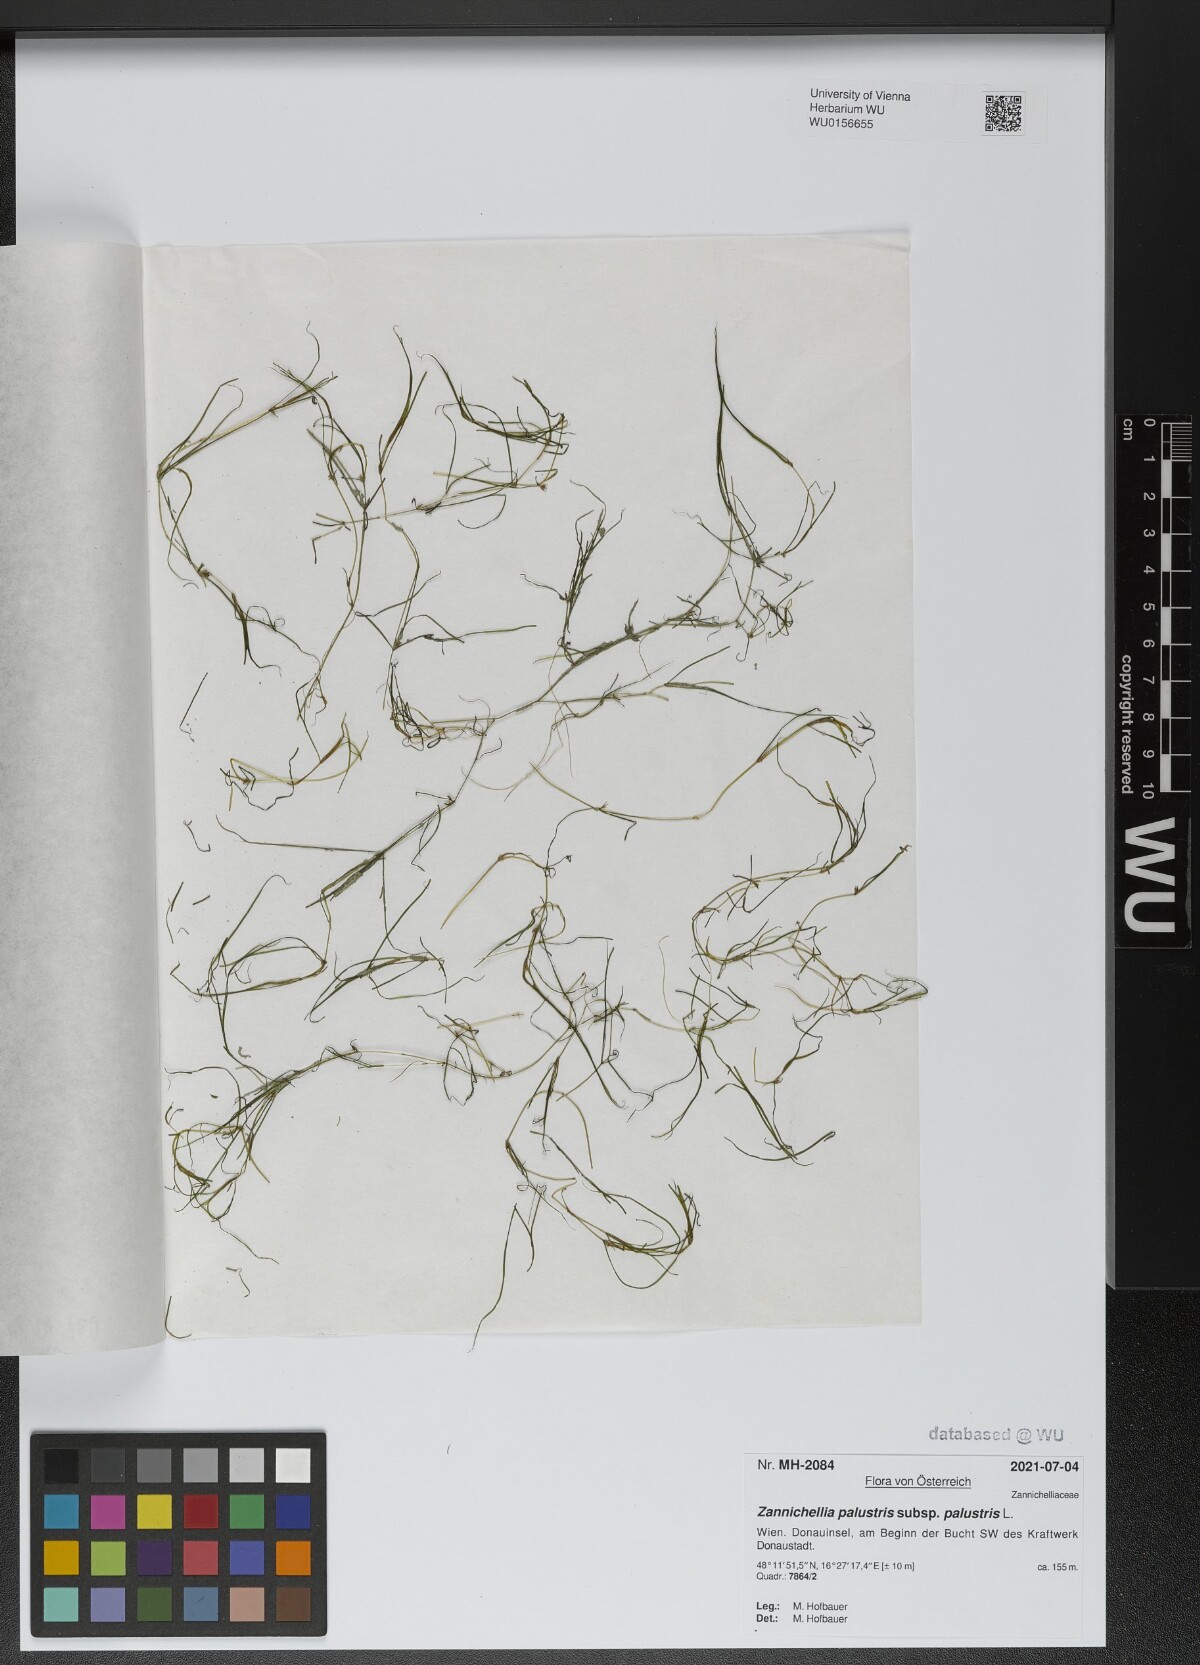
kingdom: Plantae
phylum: Tracheophyta
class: Liliopsida
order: Alismatales
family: Potamogetonaceae
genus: Zannichellia
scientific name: Zannichellia palustris
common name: Horned pondweed
